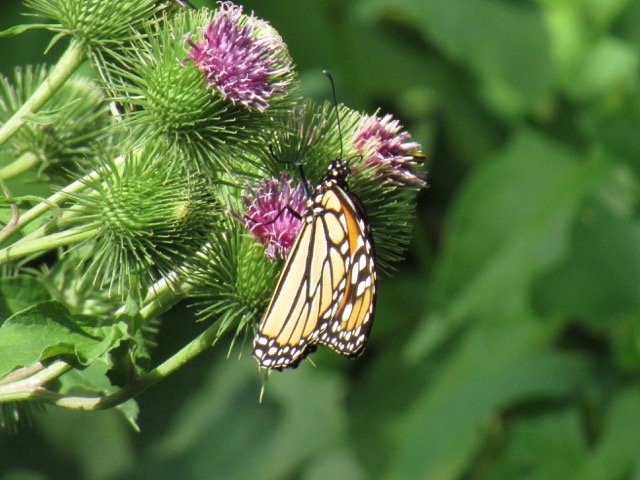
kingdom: Animalia
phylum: Arthropoda
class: Insecta
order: Lepidoptera
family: Nymphalidae
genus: Danaus
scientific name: Danaus plexippus
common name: Monarch
